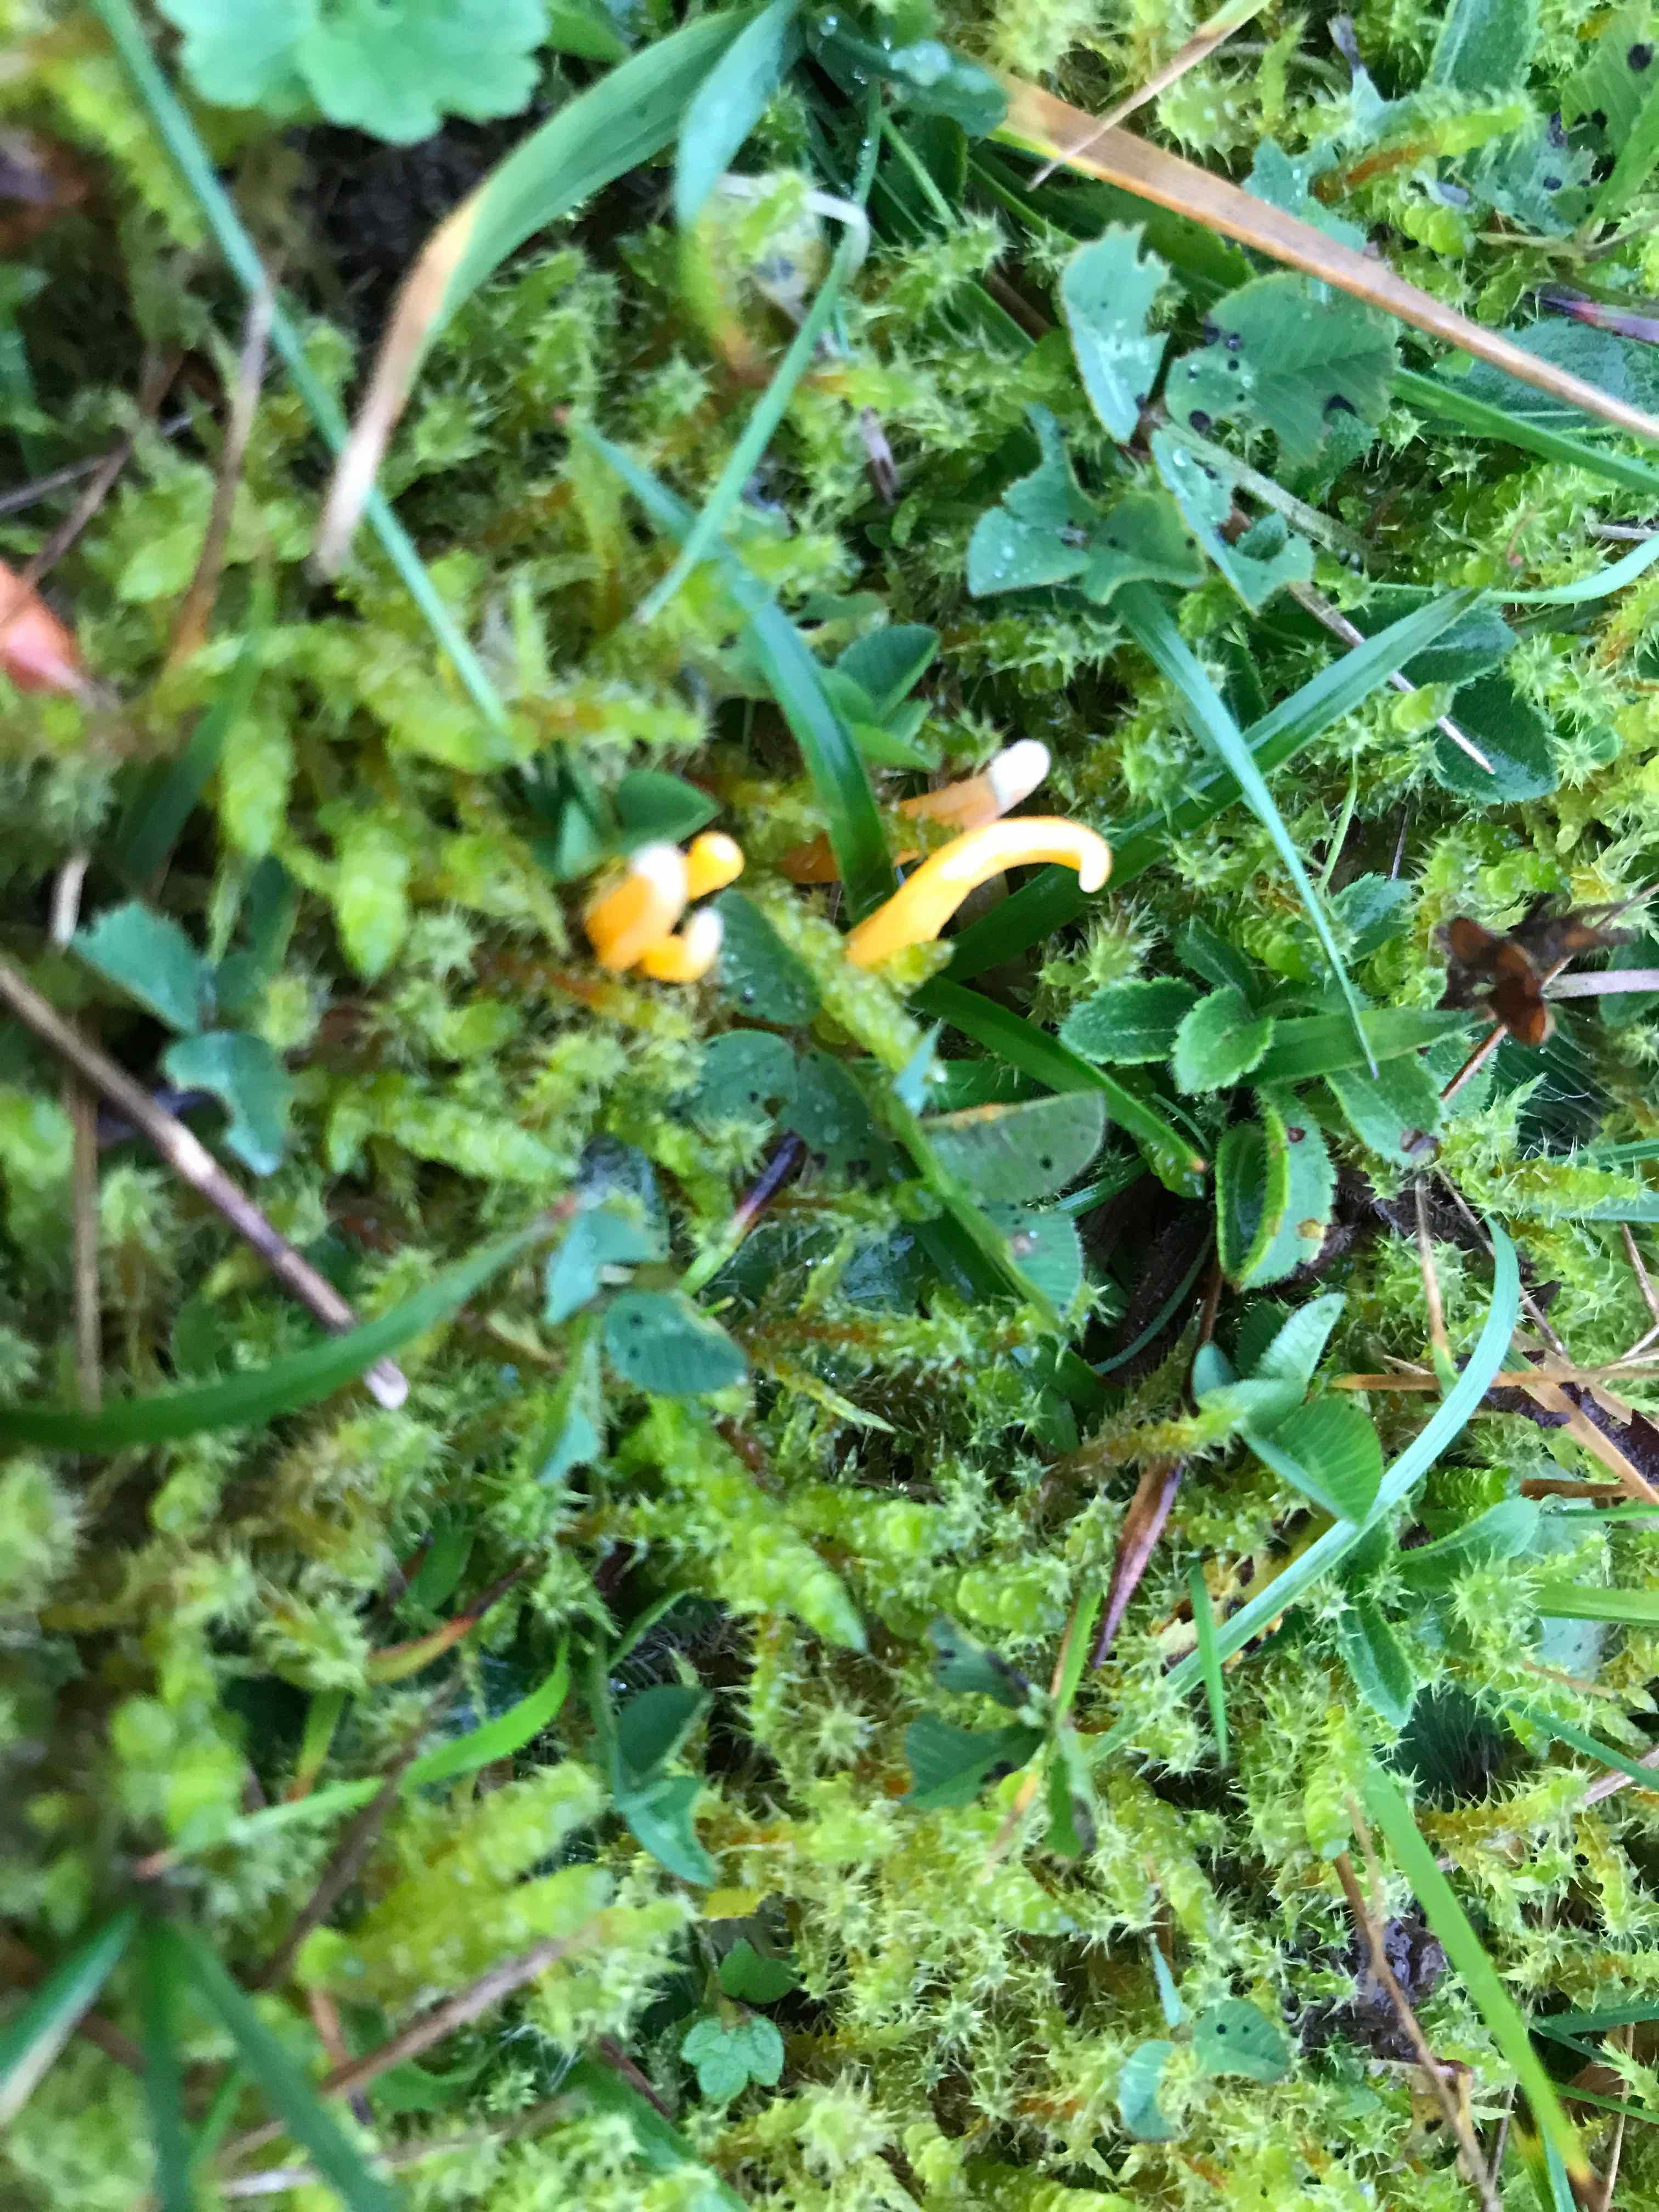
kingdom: Fungi
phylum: Basidiomycota
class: Agaricomycetes
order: Agaricales
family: Clavariaceae
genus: Clavulinopsis
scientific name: Clavulinopsis
